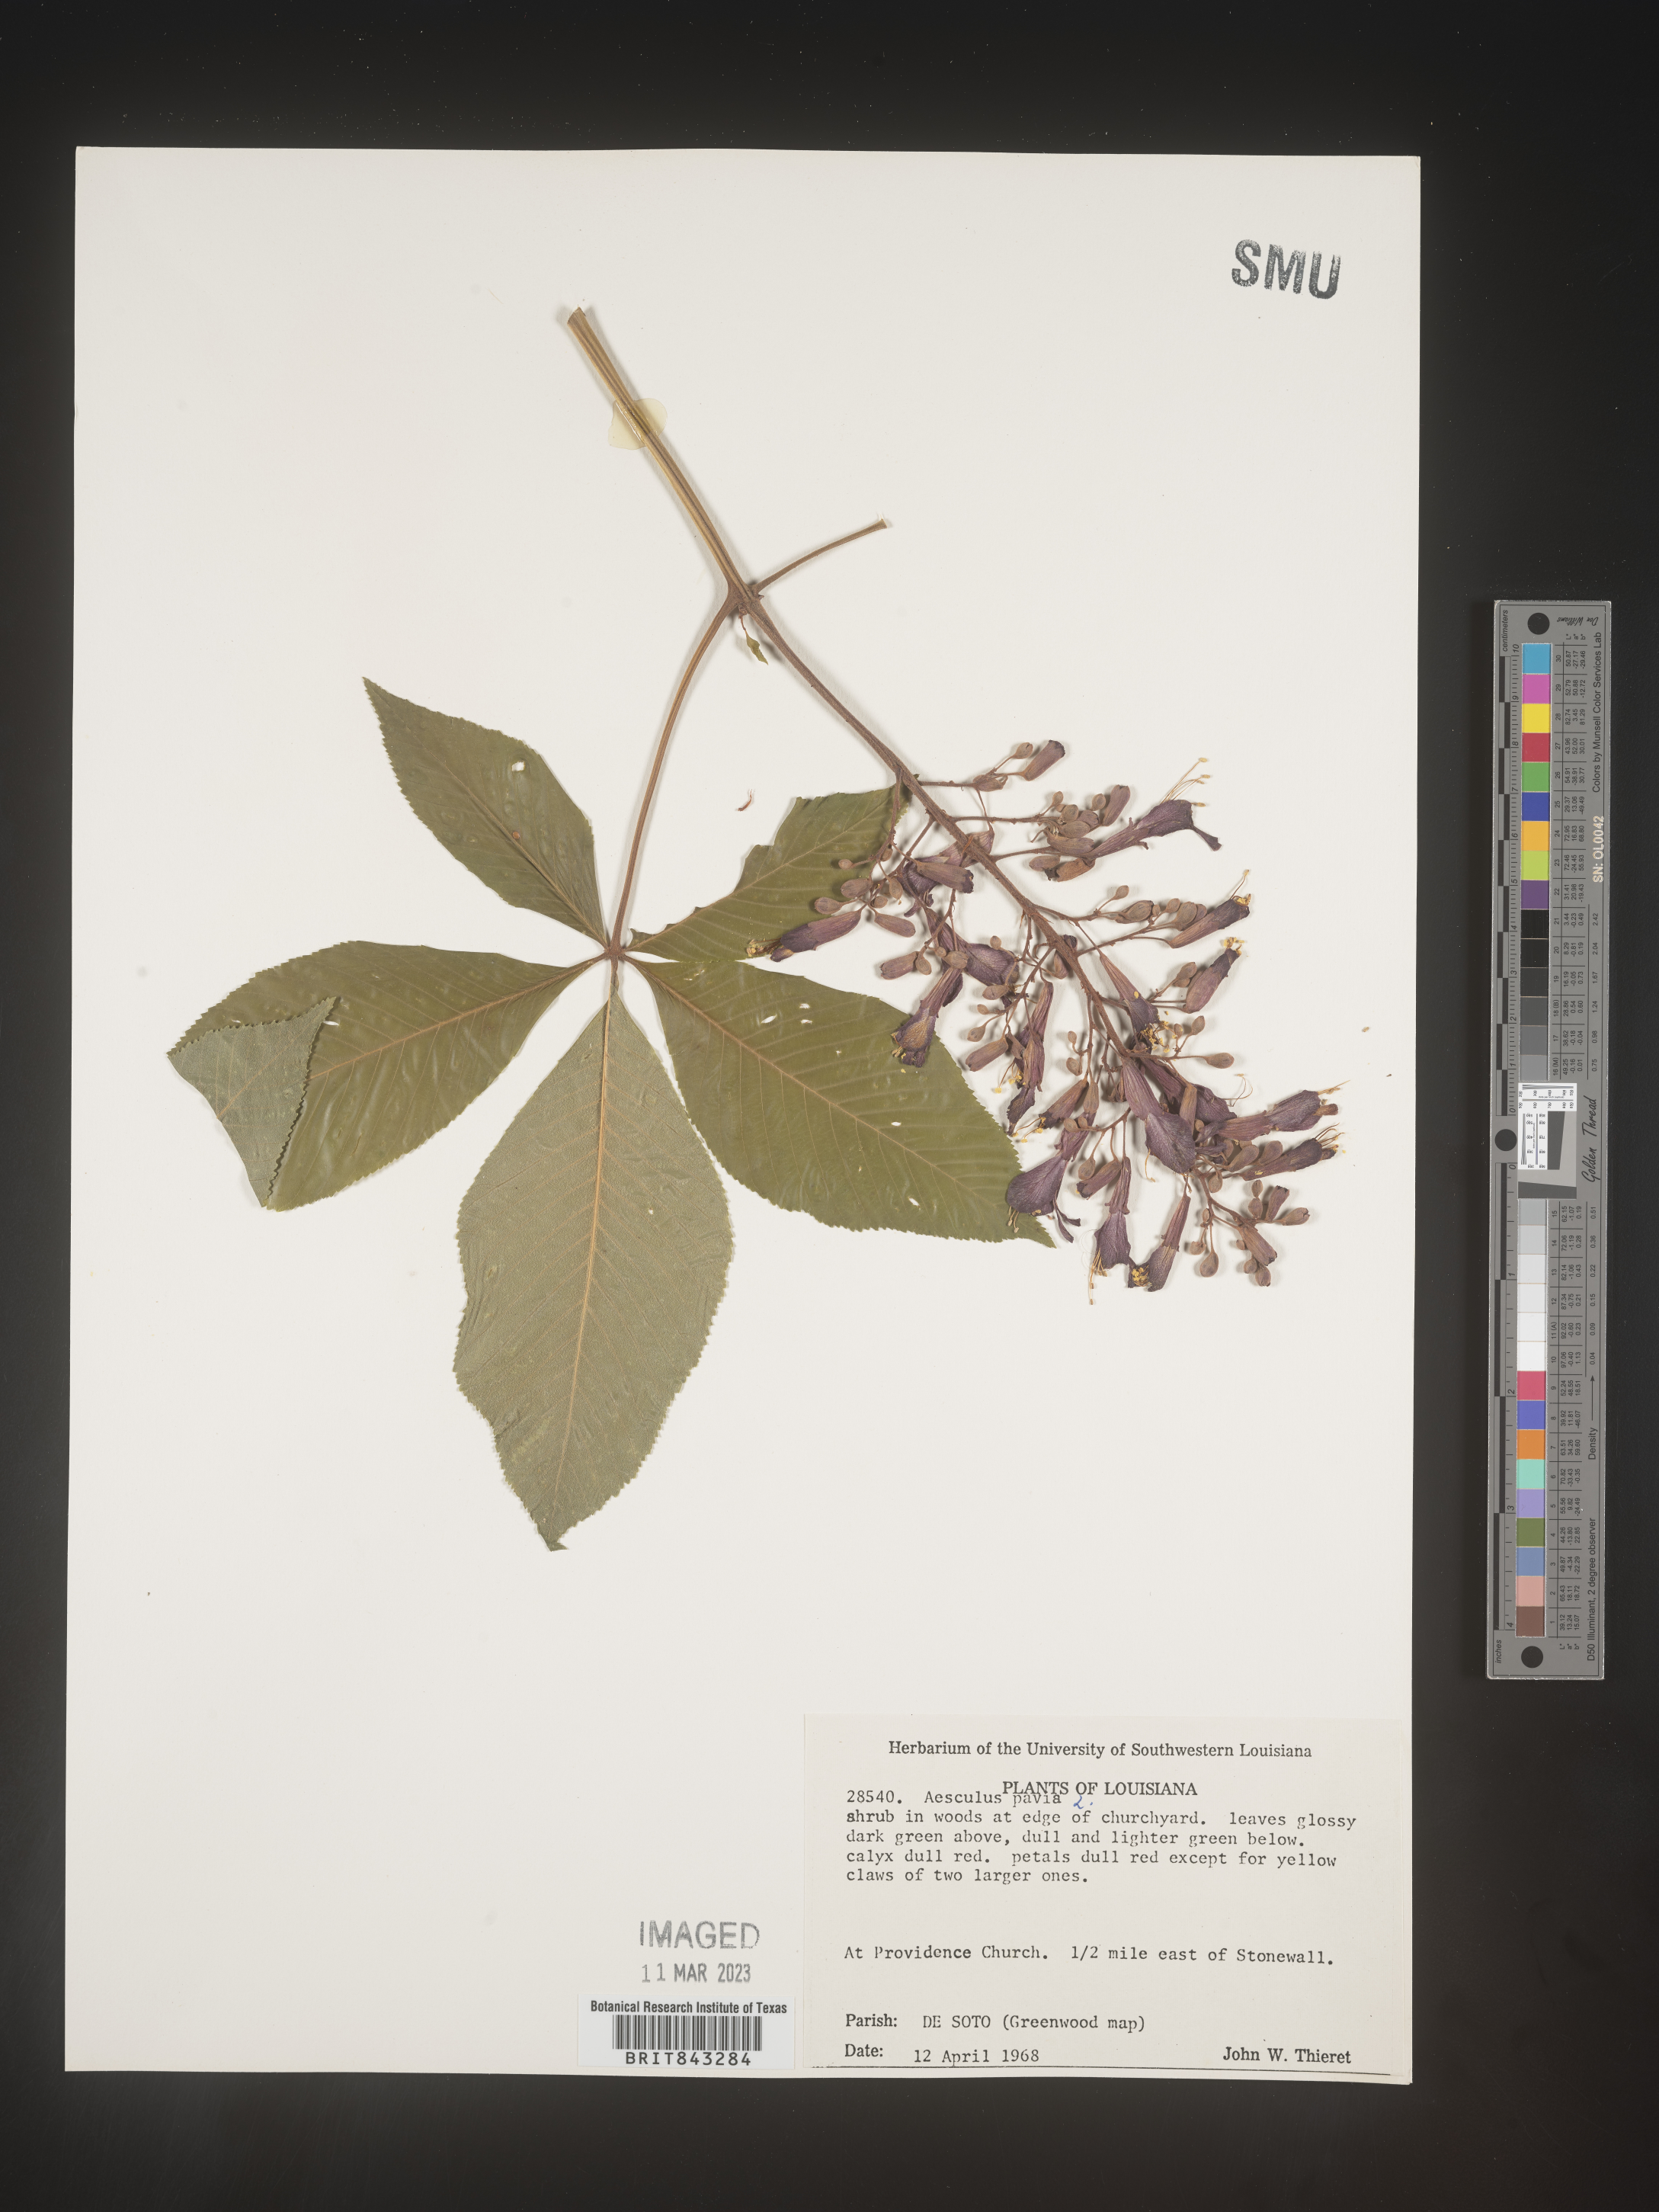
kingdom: Plantae
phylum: Tracheophyta
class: Magnoliopsida
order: Sapindales
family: Sapindaceae
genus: Aesculus
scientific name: Aesculus pavia
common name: Red buckeye
